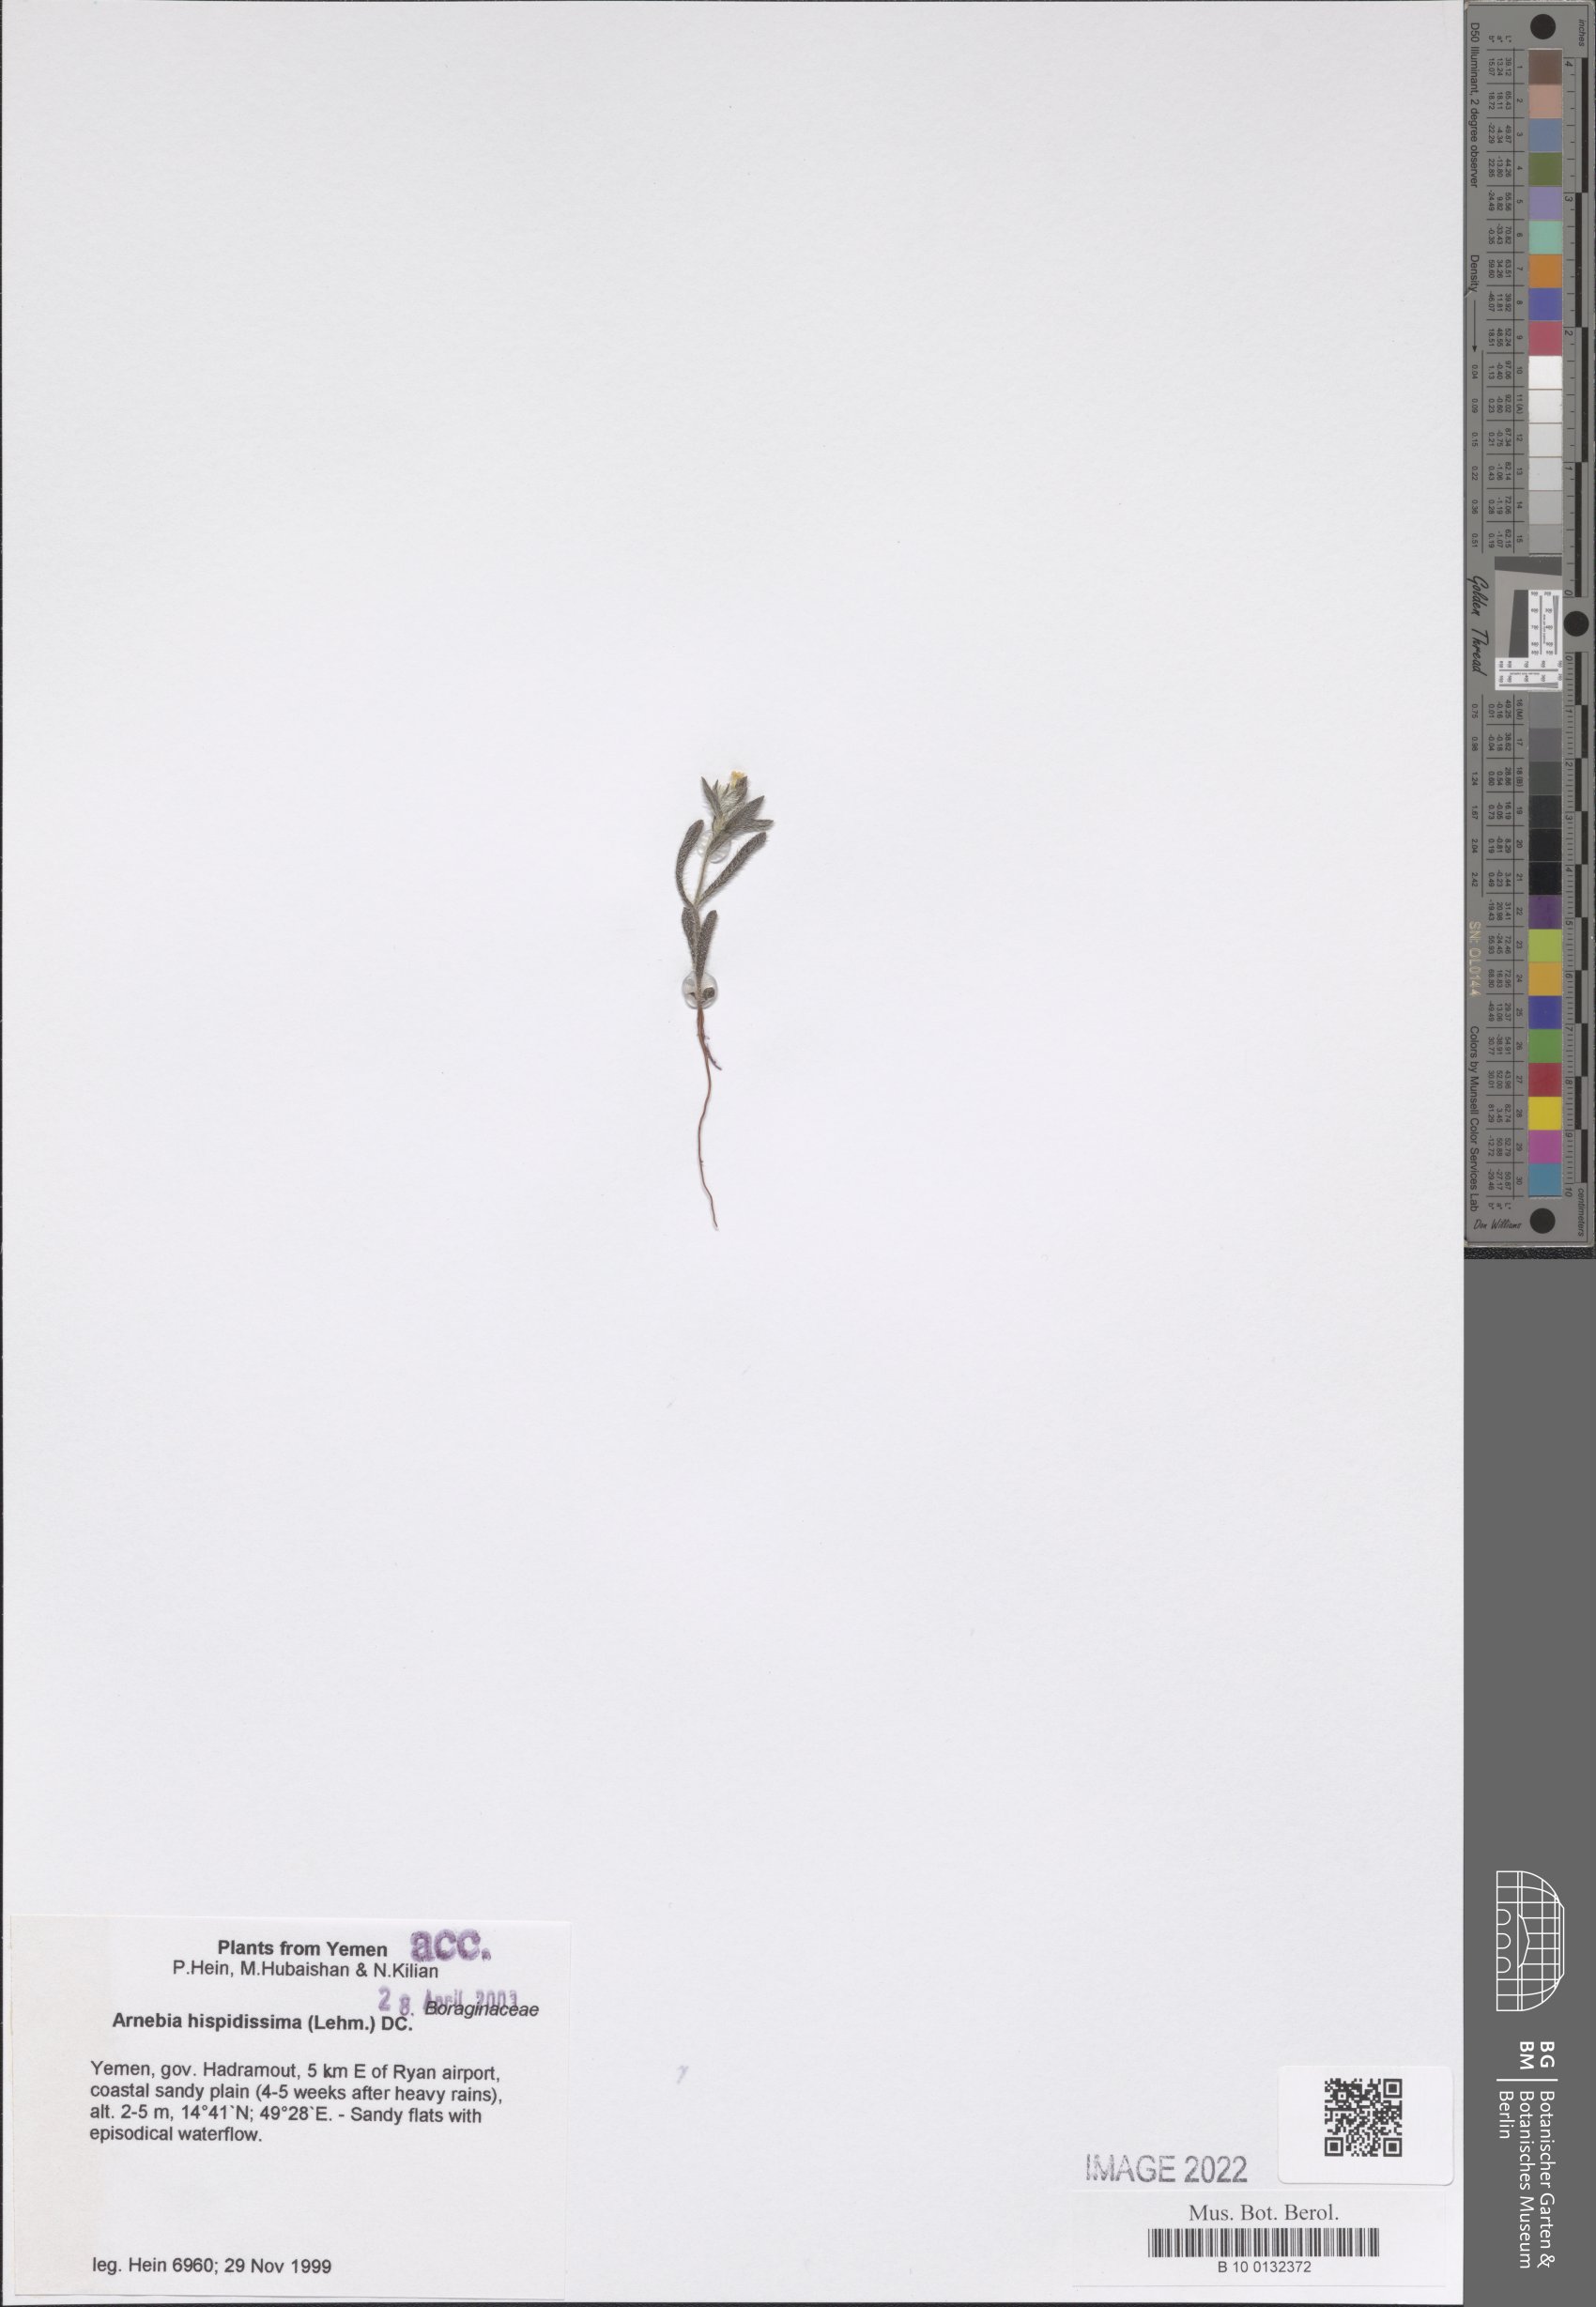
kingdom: Plantae
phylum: Tracheophyta
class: Magnoliopsida
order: Boraginales
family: Boraginaceae
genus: Arnebia
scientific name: Arnebia hispidissima
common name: Arabian-primrose
